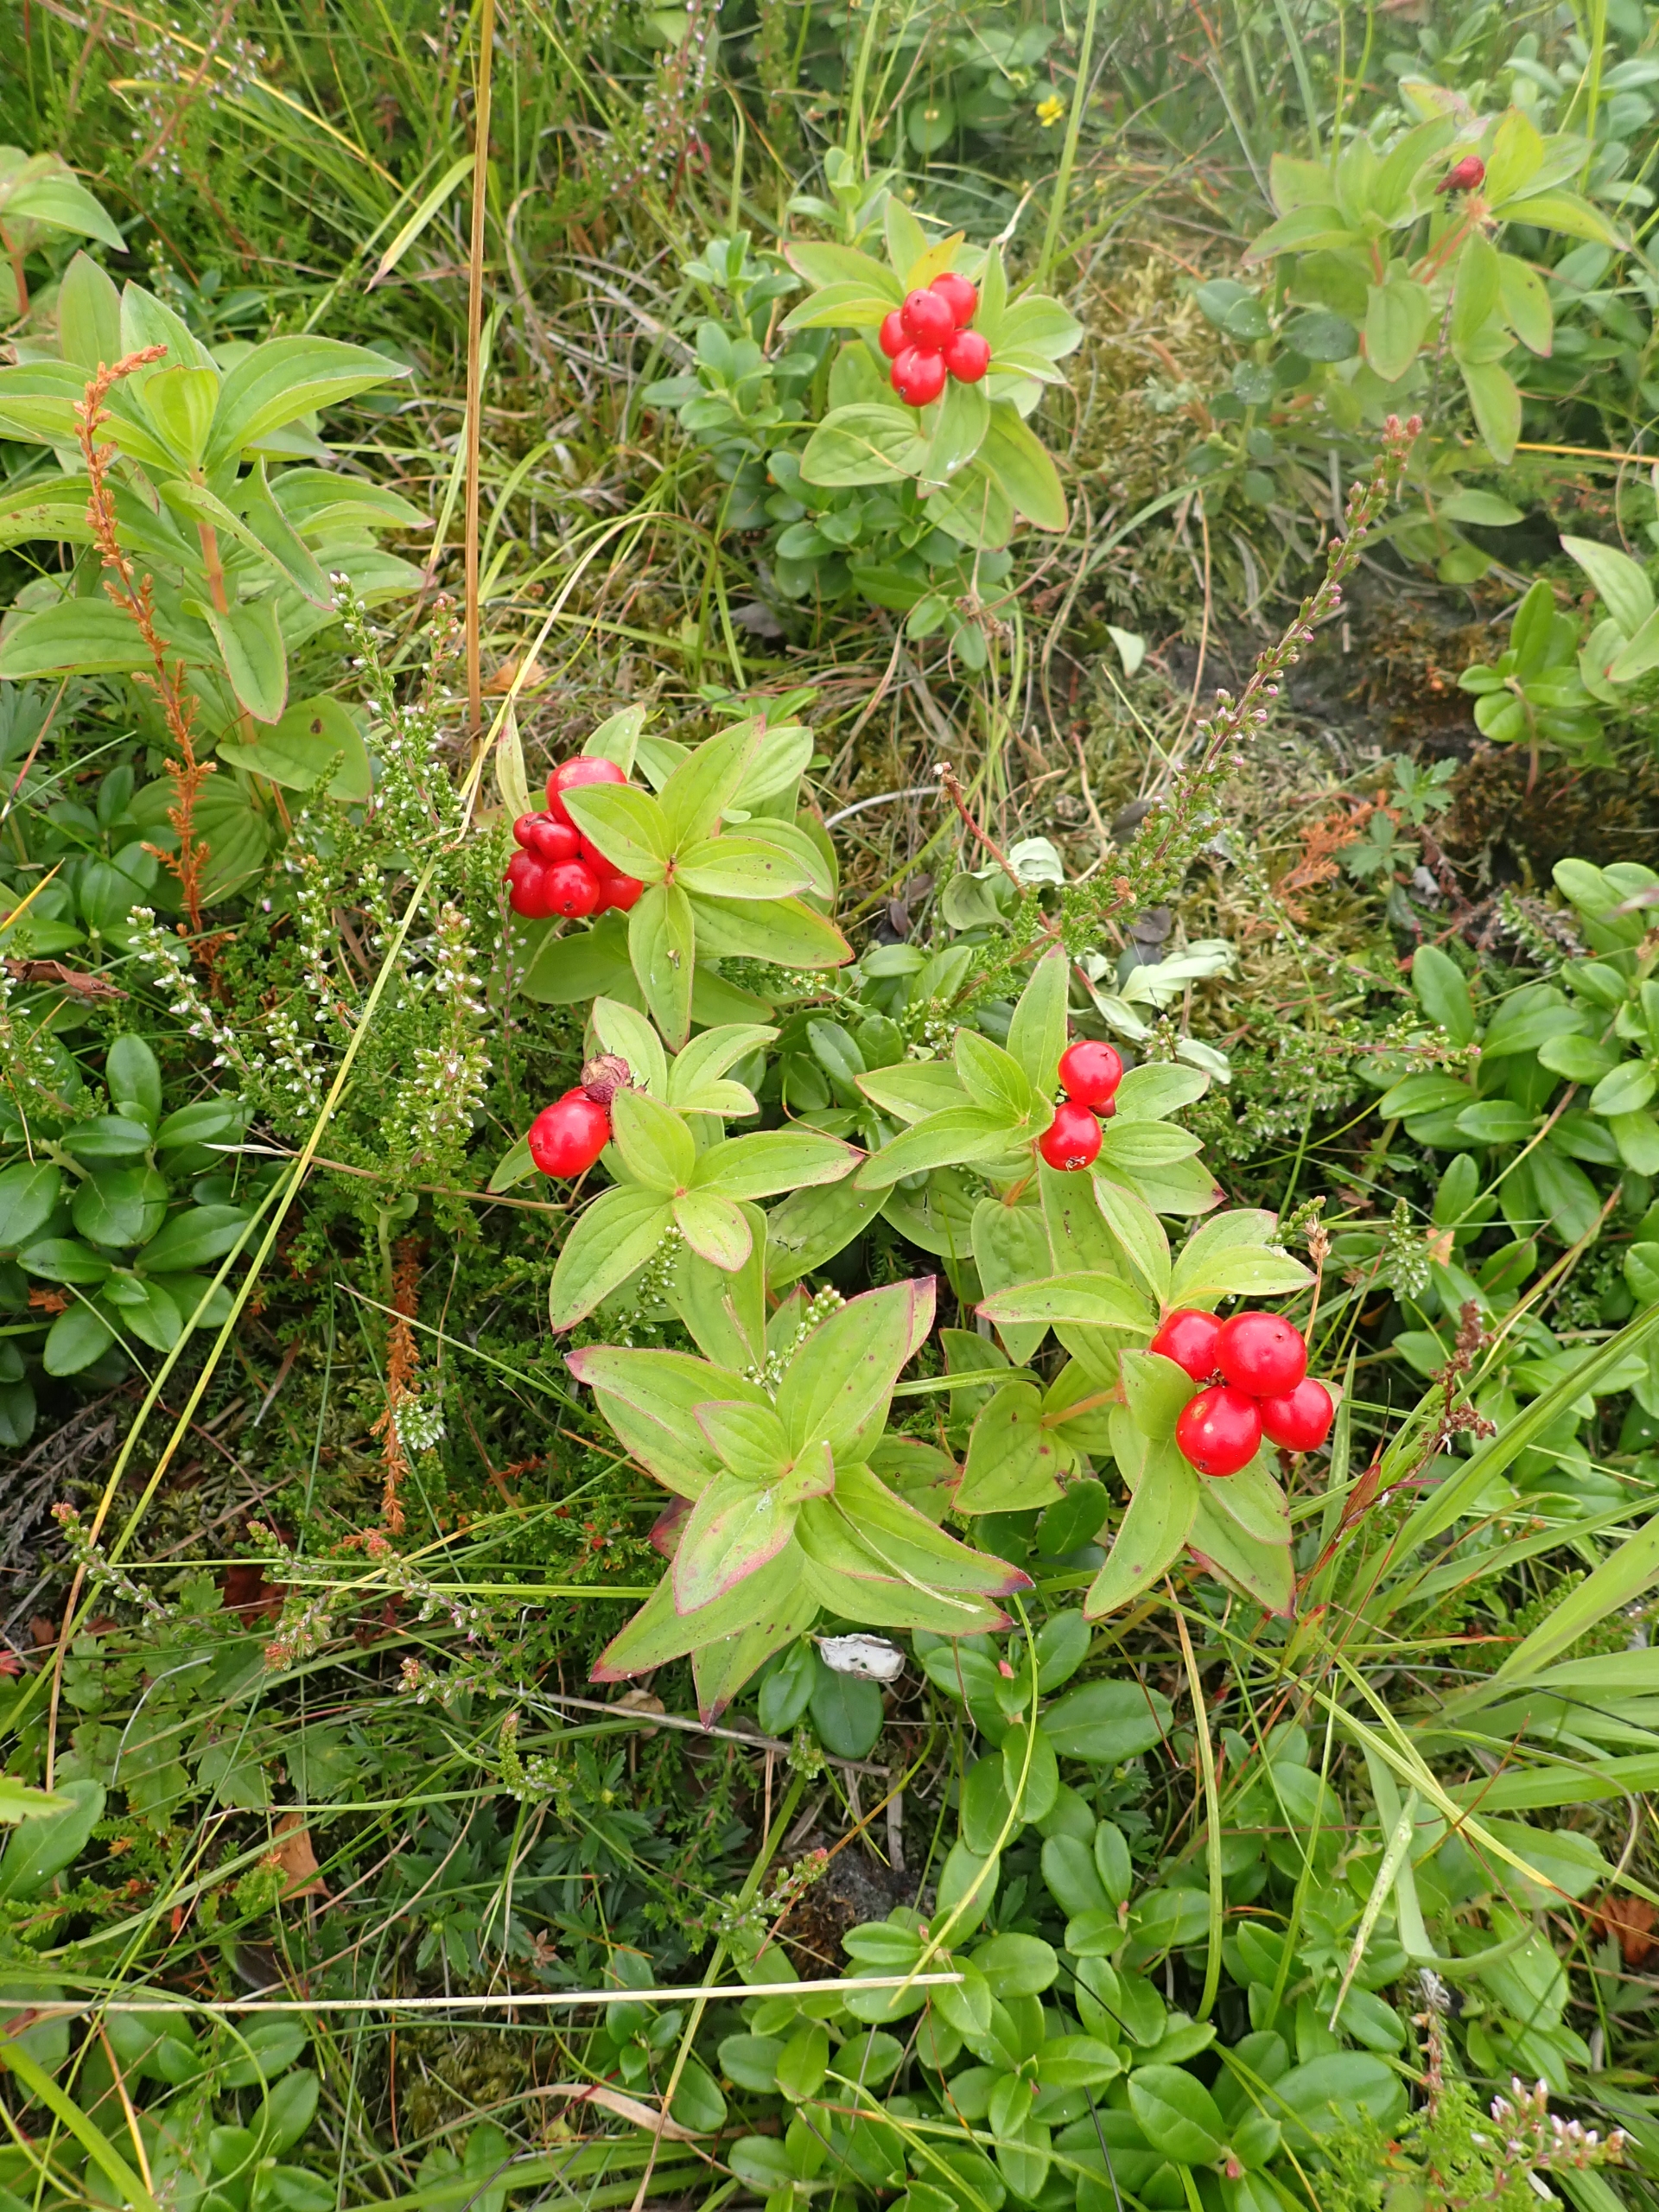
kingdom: Plantae
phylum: Tracheophyta
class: Magnoliopsida
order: Cornales
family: Cornaceae
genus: Cornus
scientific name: Cornus suecica
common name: Hønsebær
